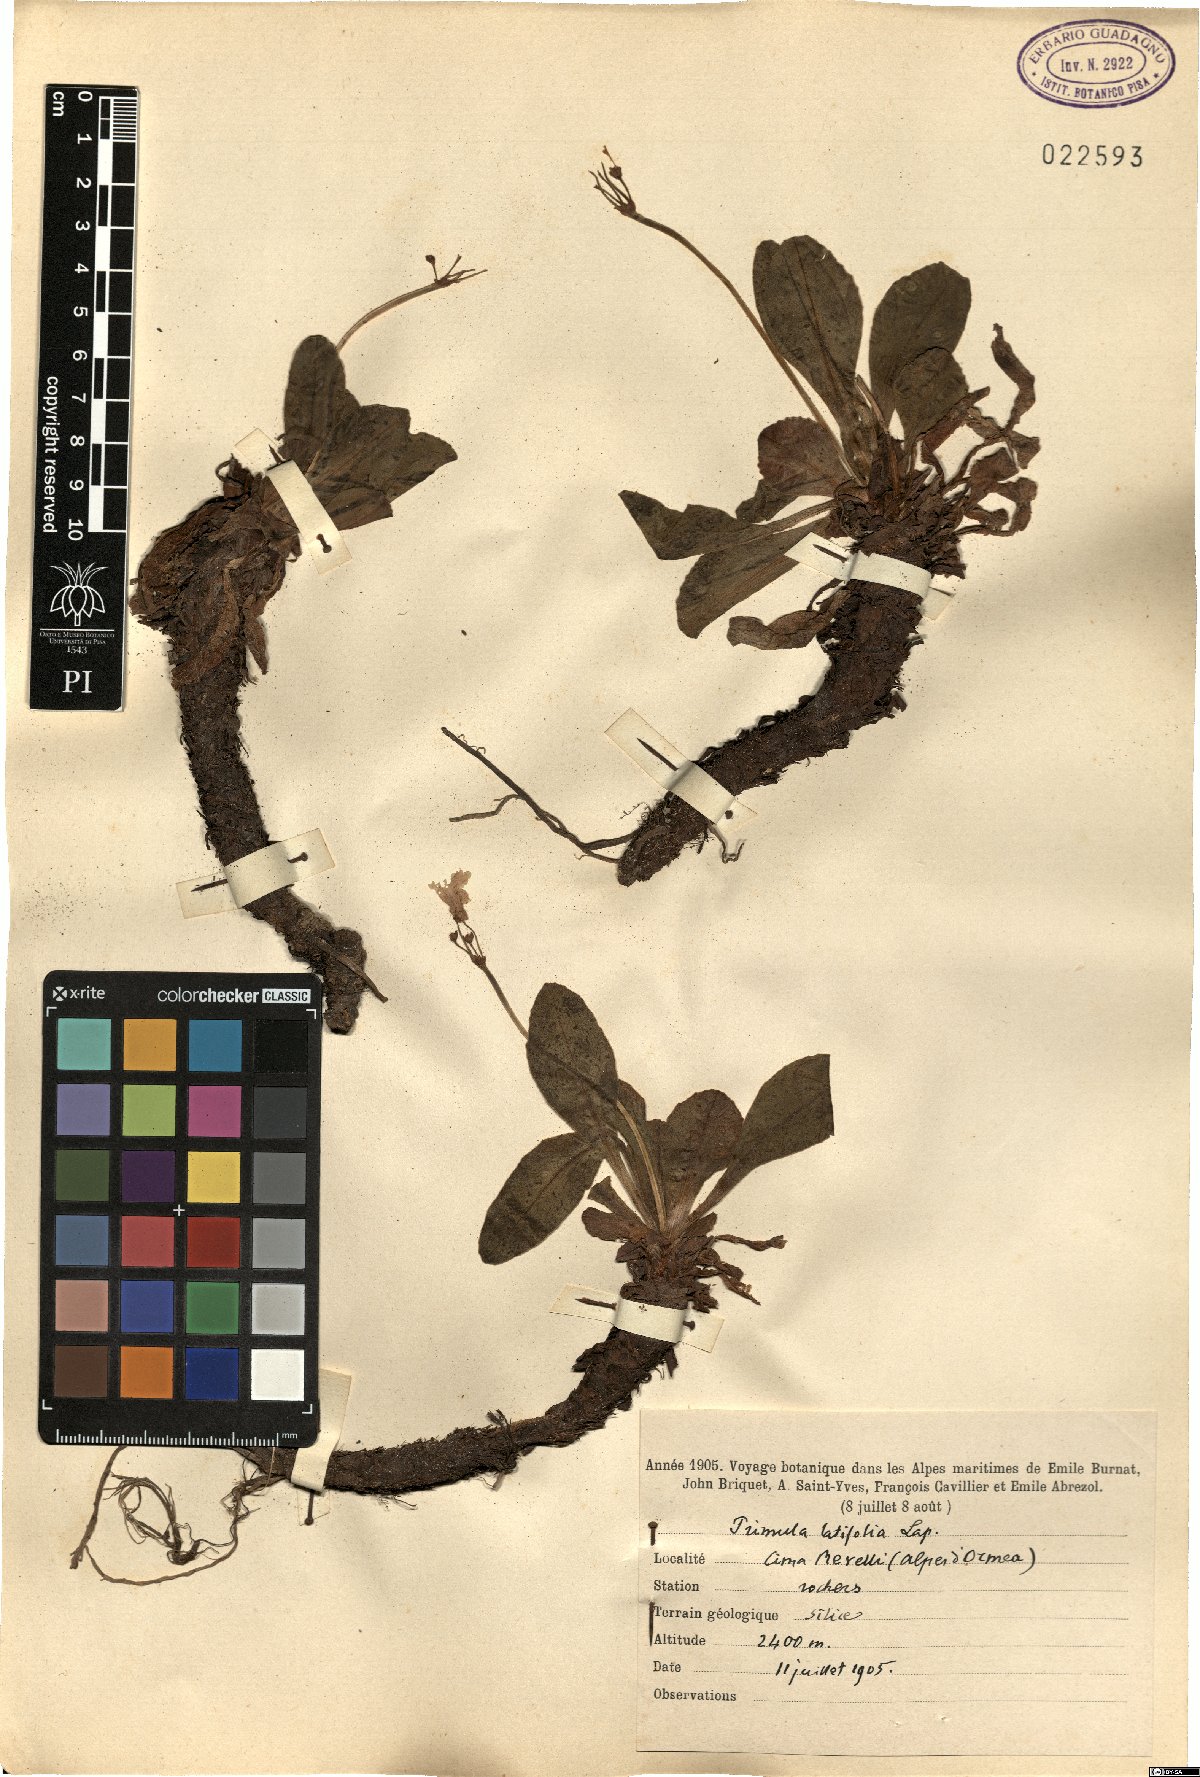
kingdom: Plantae
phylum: Tracheophyta
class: Magnoliopsida
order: Ericales
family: Primulaceae
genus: Primula
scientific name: Primula latifolia
